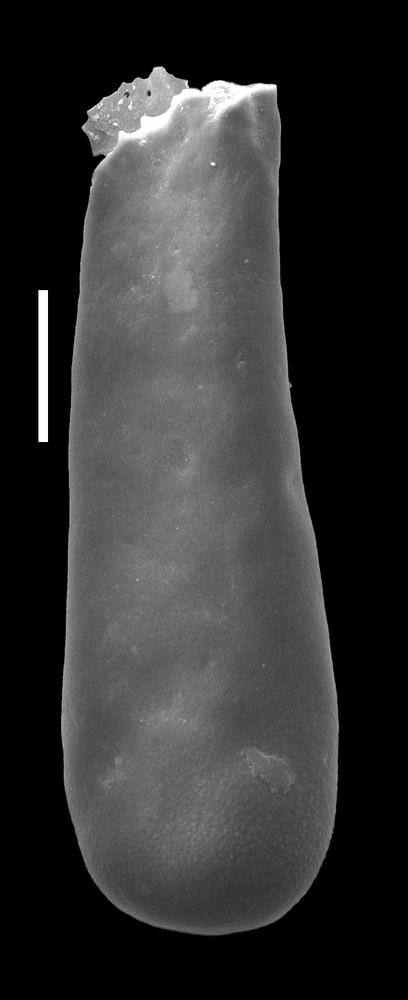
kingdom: Animalia
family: Conochitinidae
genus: Conochitina
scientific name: Conochitina
